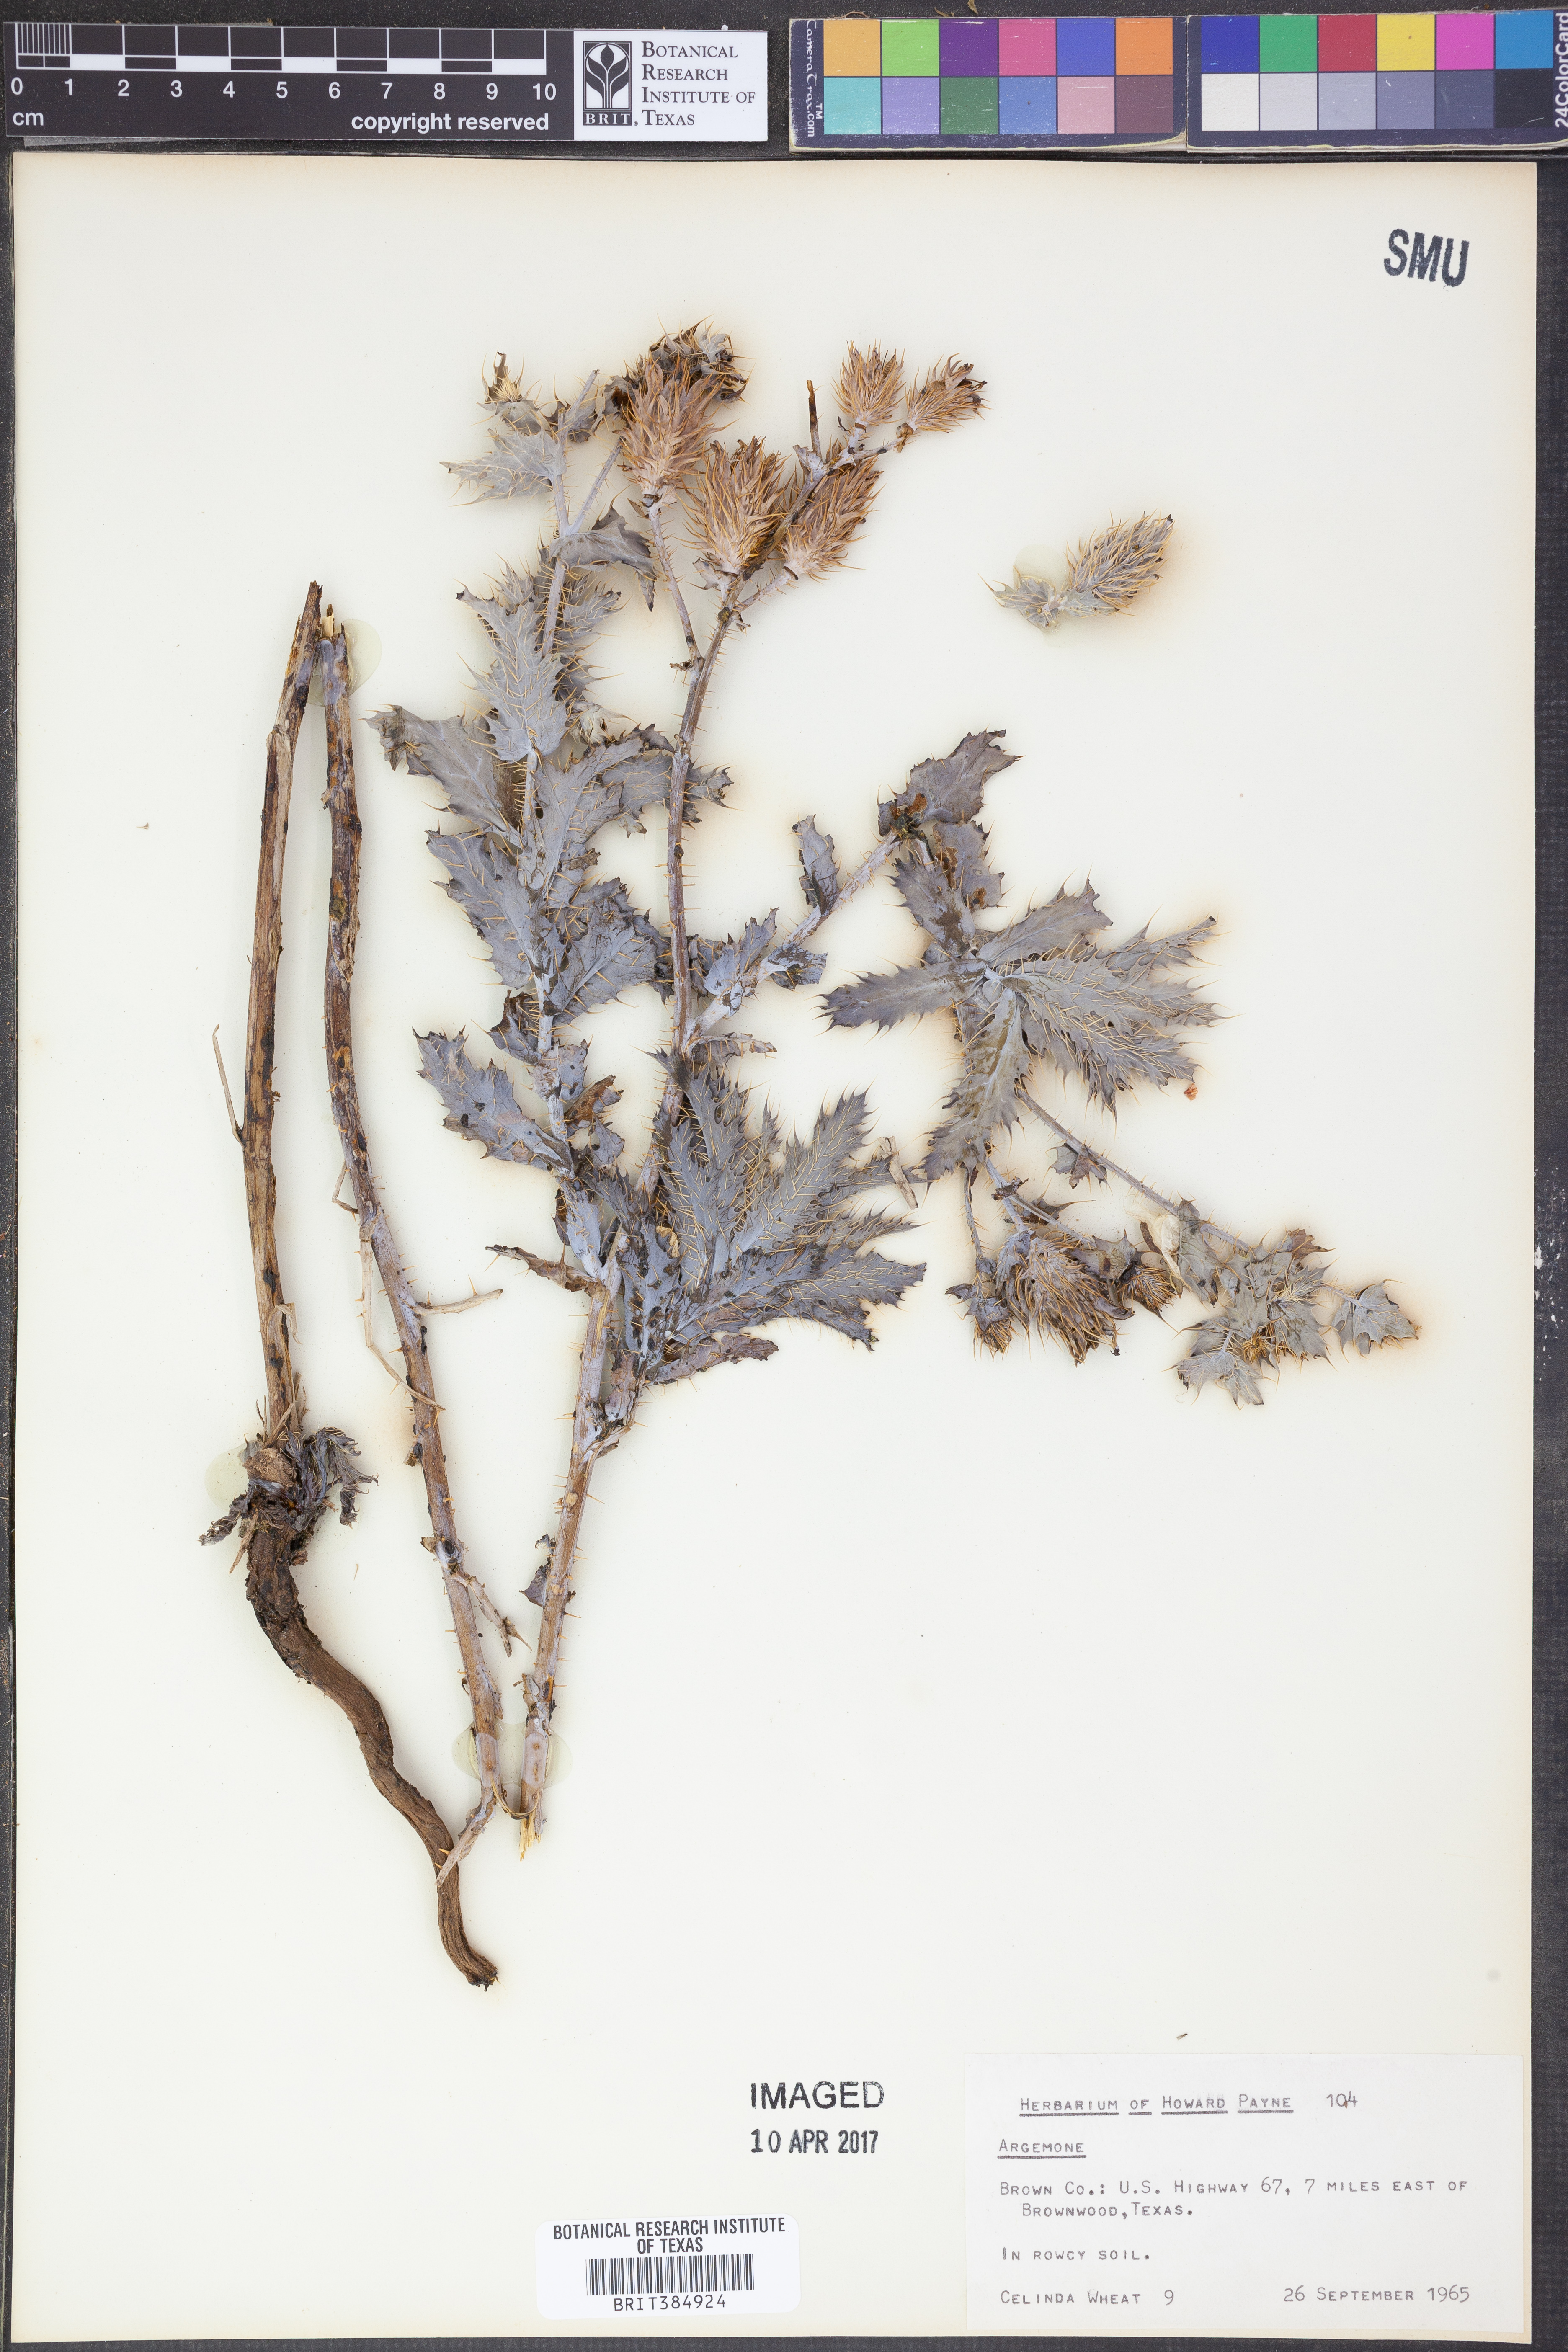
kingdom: Plantae
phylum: Tracheophyta
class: Magnoliopsida
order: Ranunculales
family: Papaveraceae
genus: Argemone
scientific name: Argemone
